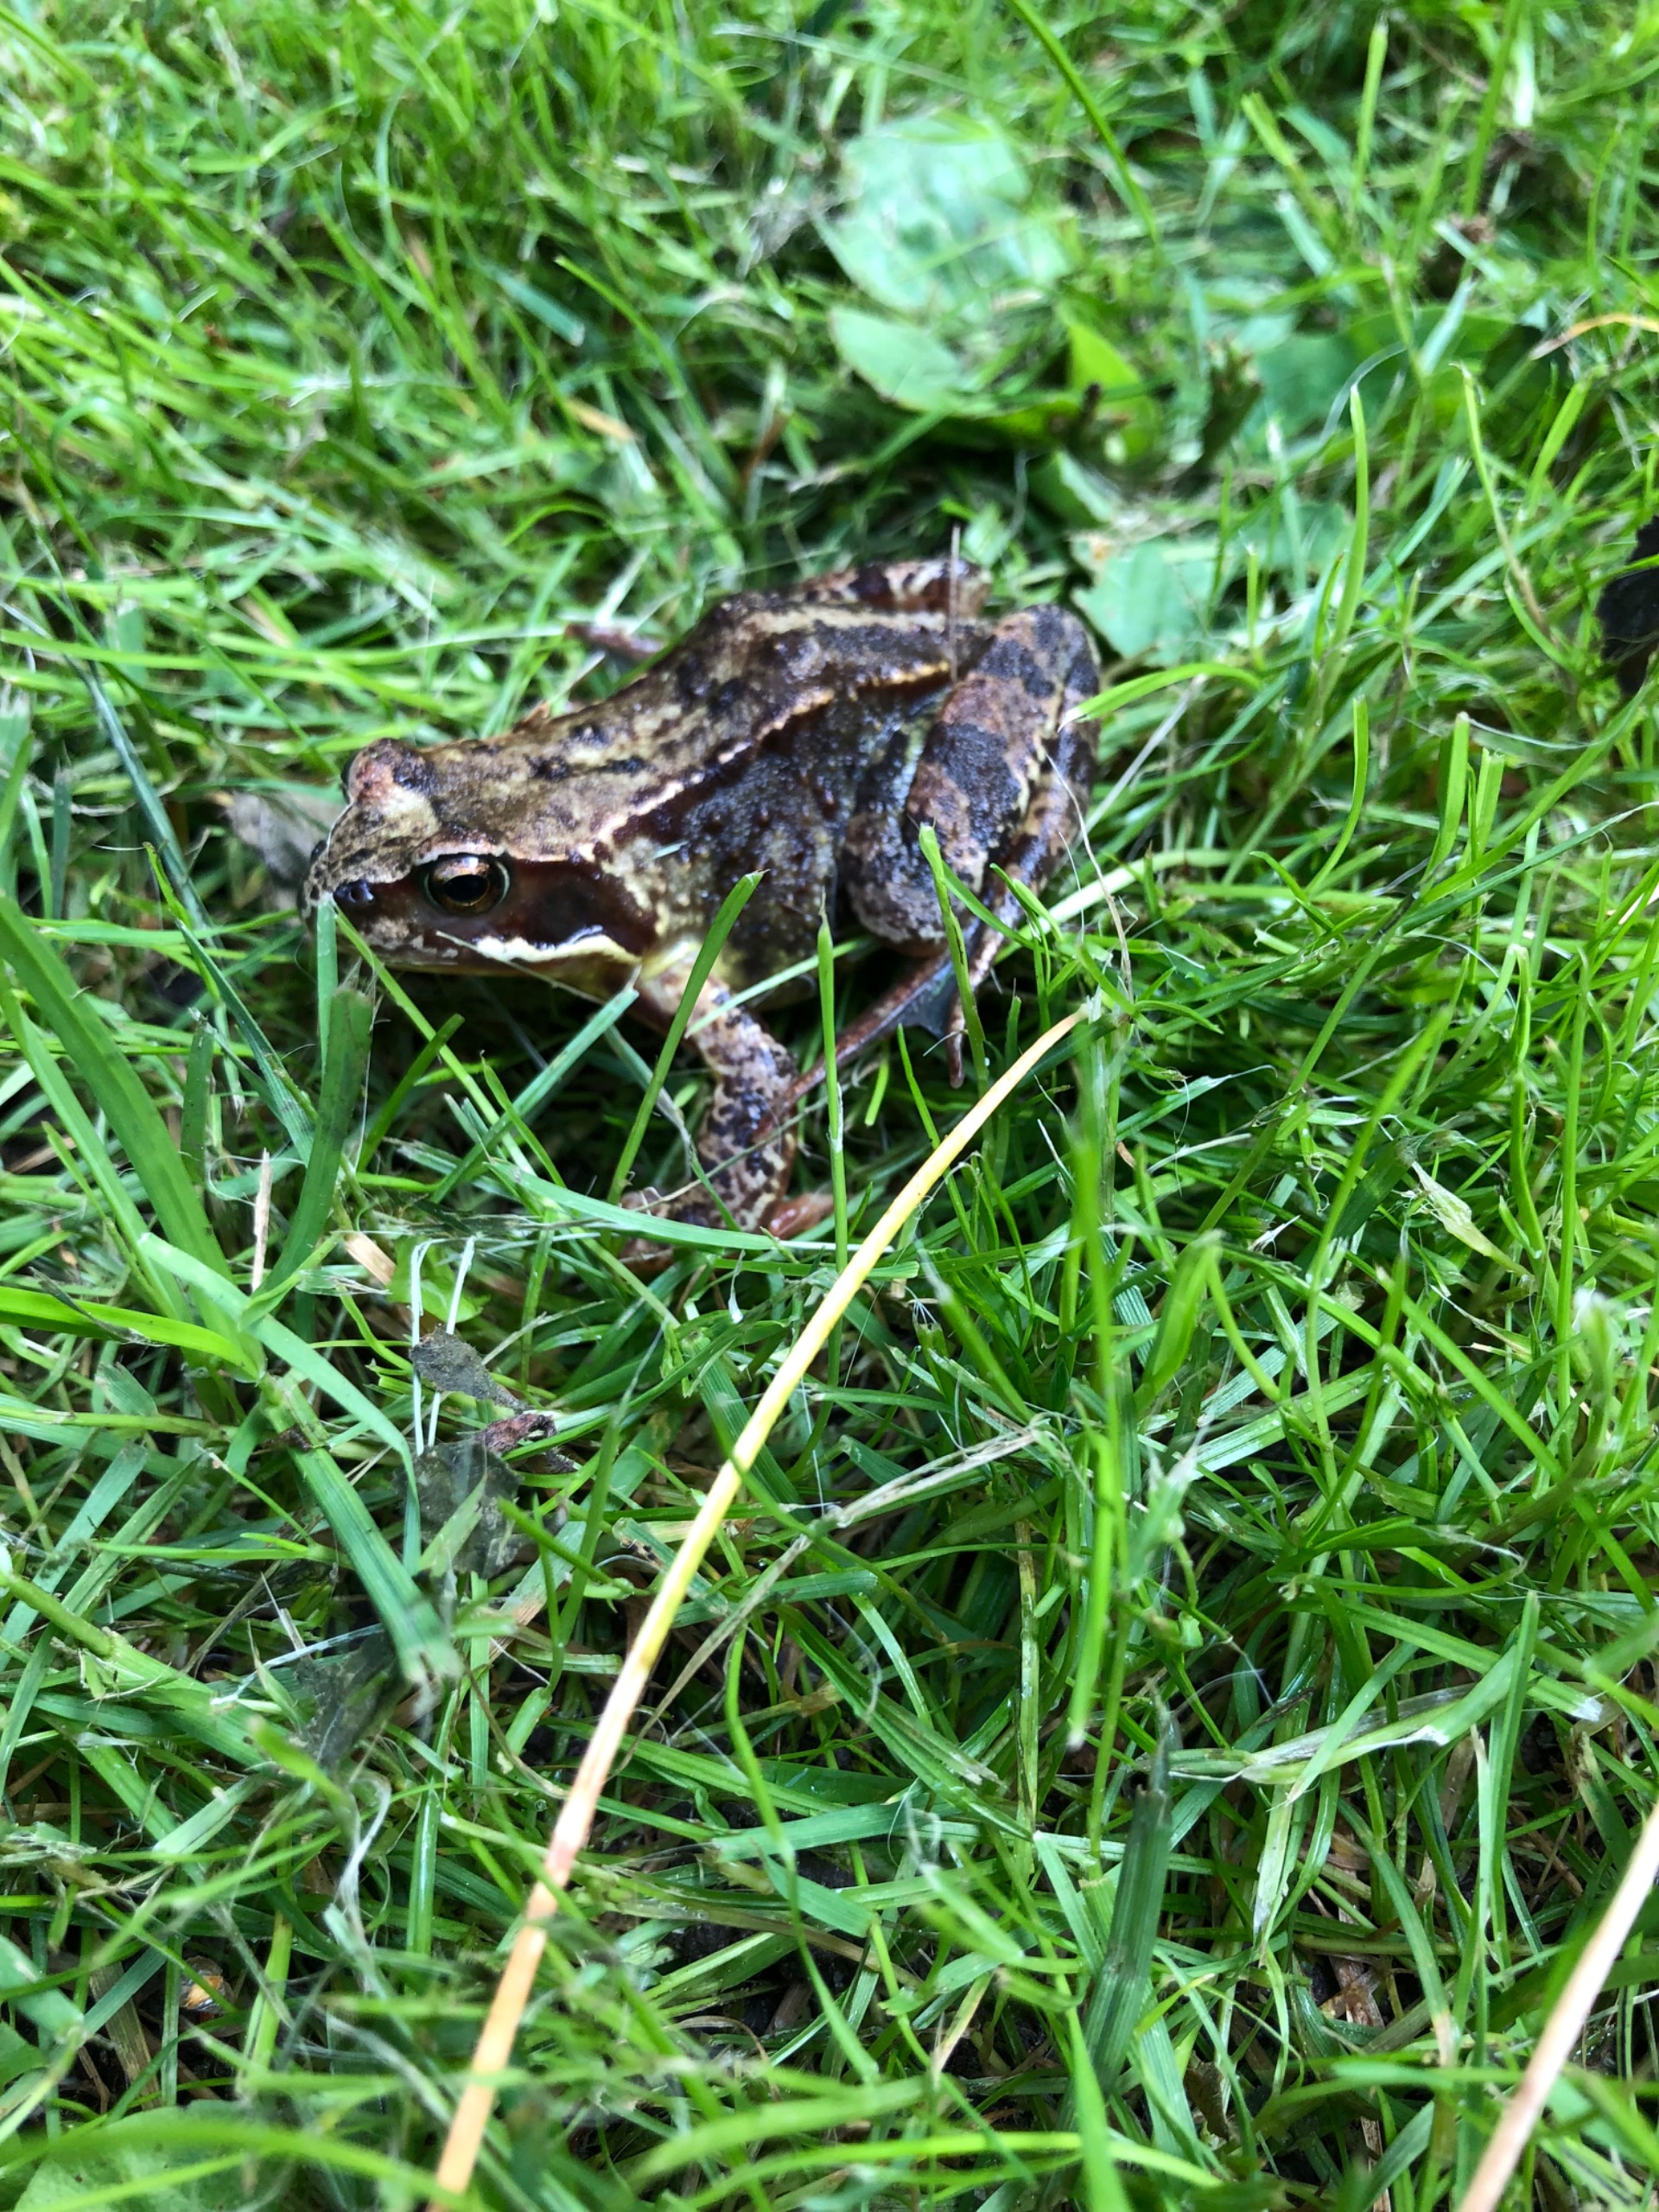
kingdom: Animalia
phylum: Chordata
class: Amphibia
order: Anura
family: Ranidae
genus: Rana
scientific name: Rana temporaria
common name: Butsnudet frø
